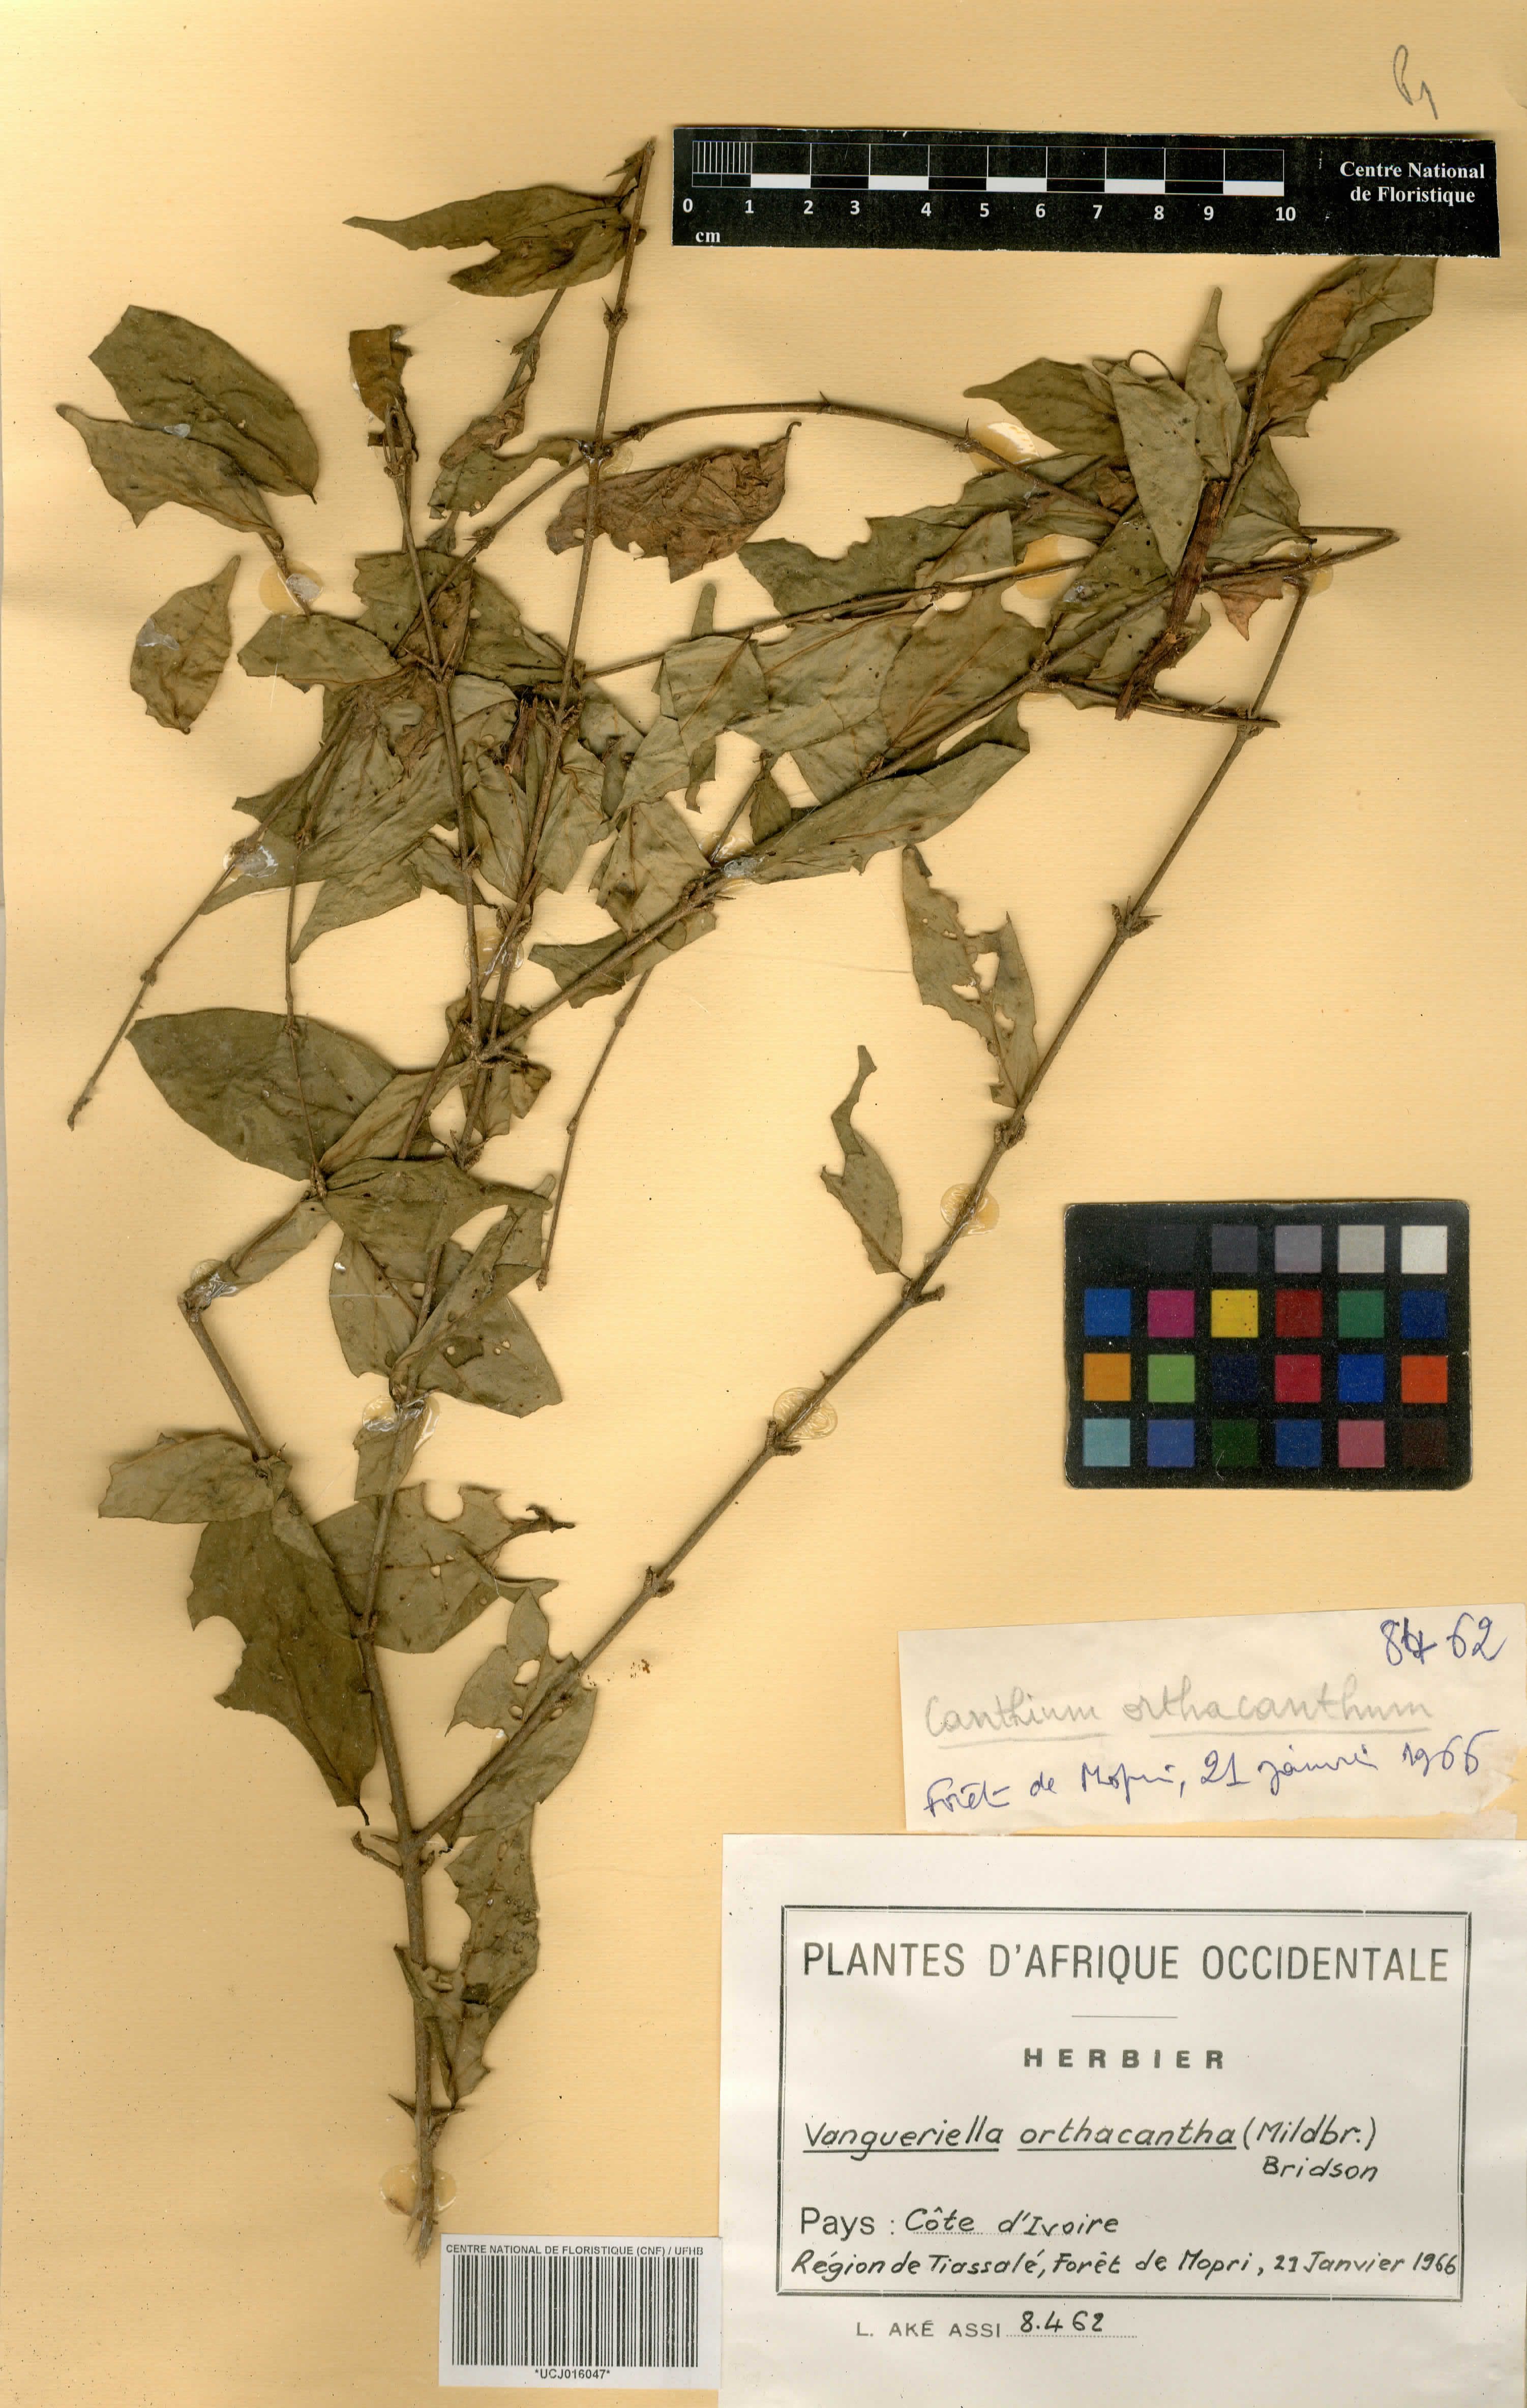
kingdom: Plantae
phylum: Tracheophyta
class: Magnoliopsida
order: Gentianales
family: Rubiaceae
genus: Vangueriella
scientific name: Vangueriella orthacantha
